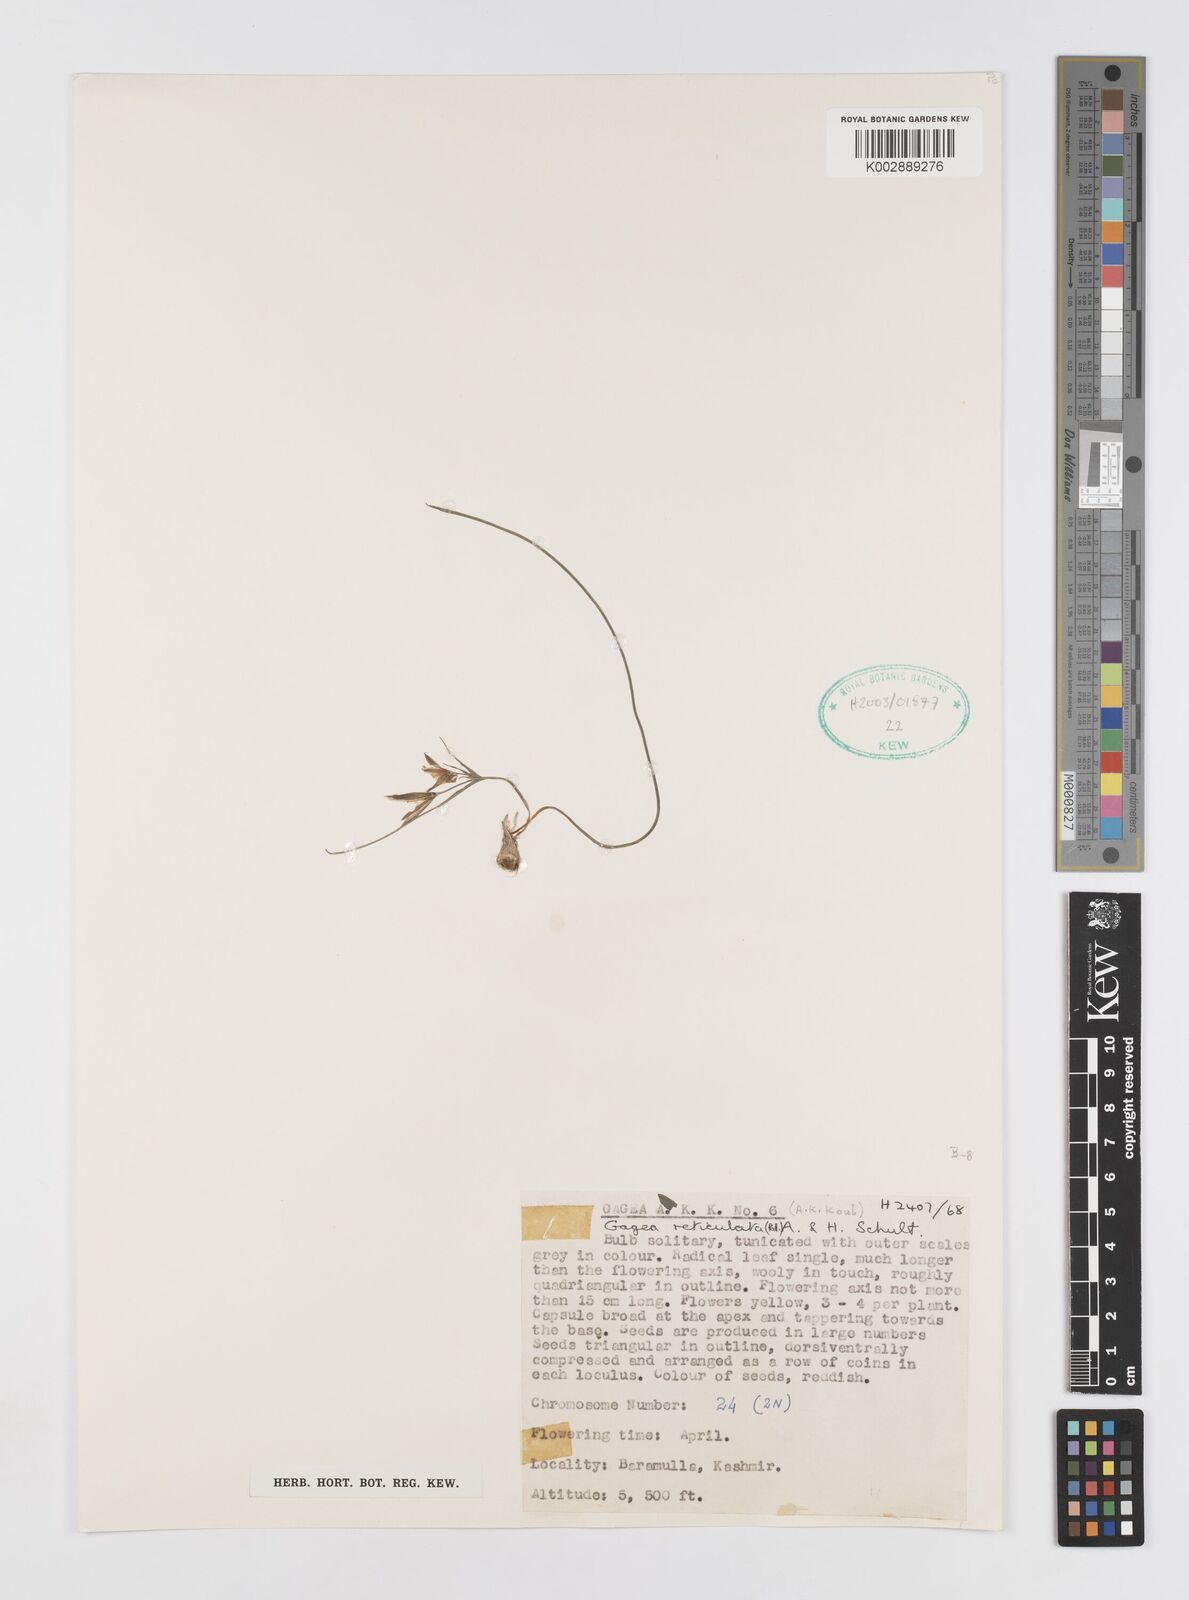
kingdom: Plantae
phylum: Tracheophyta
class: Liliopsida
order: Liliales
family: Liliaceae
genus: Gagea
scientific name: Gagea reticulata
